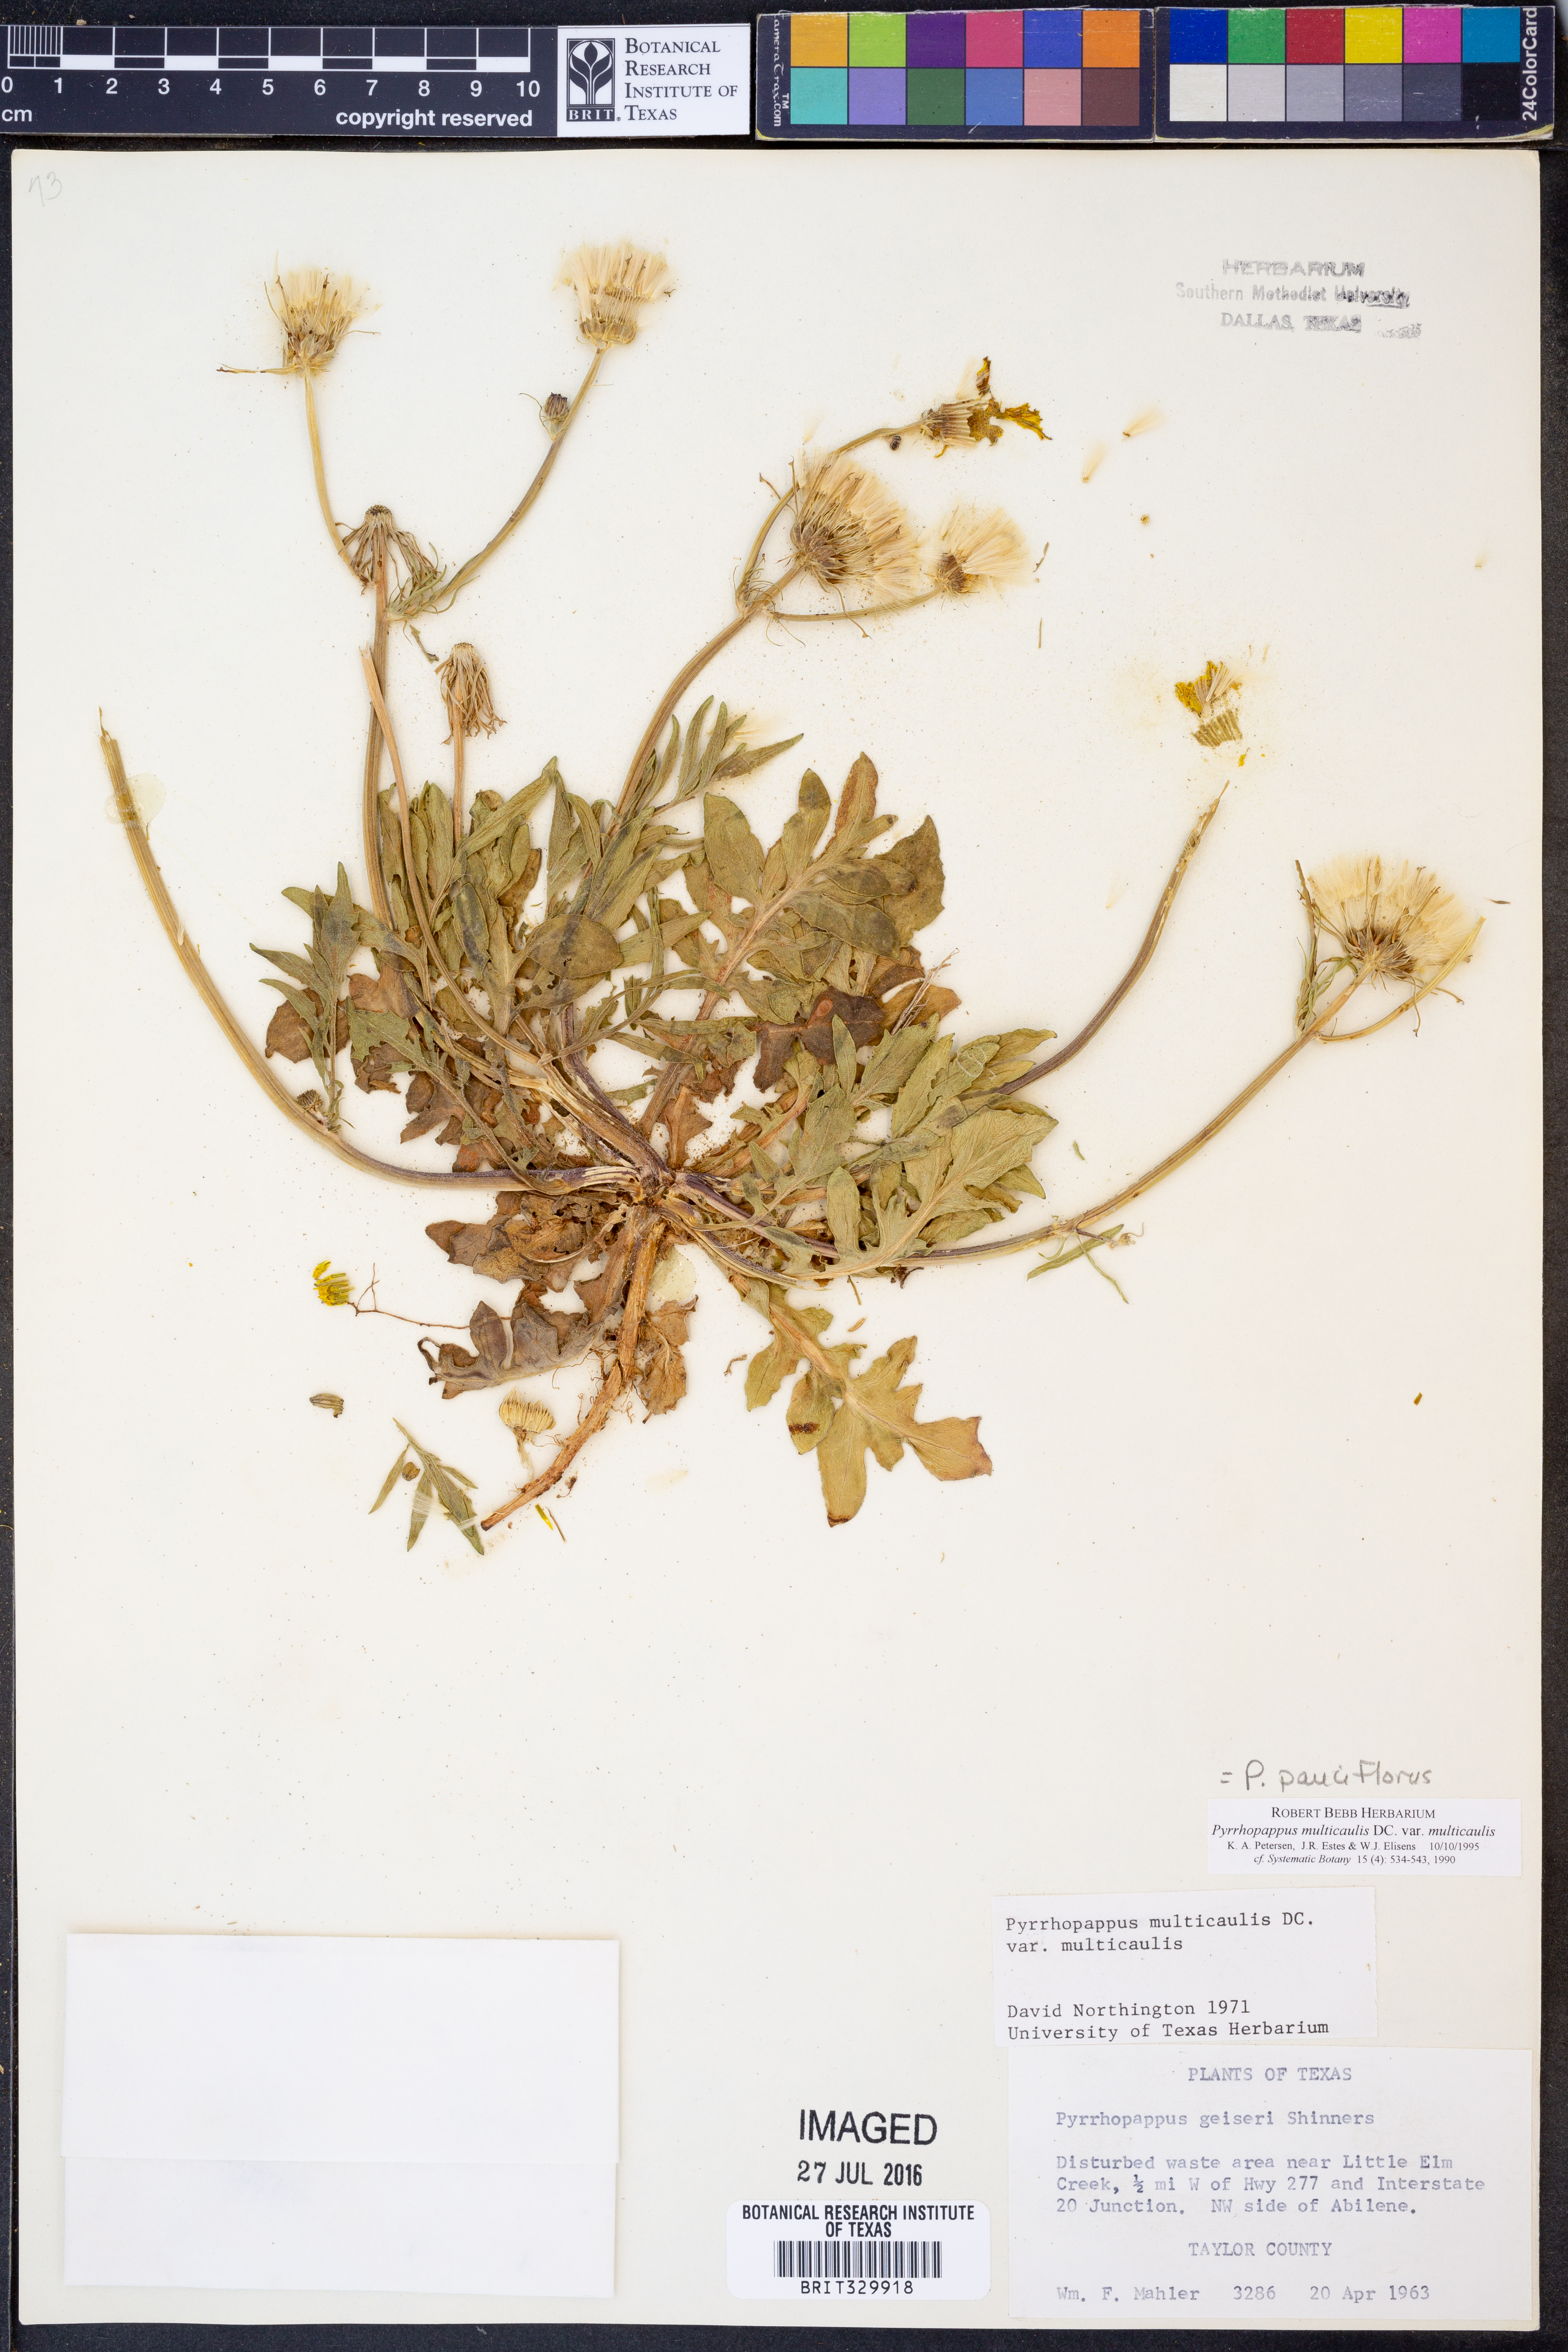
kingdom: Plantae
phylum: Tracheophyta
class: Magnoliopsida
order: Asterales
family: Asteraceae
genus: Pyrrhopappus
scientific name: Pyrrhopappus pauciflorus
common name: Texas false dandelion
